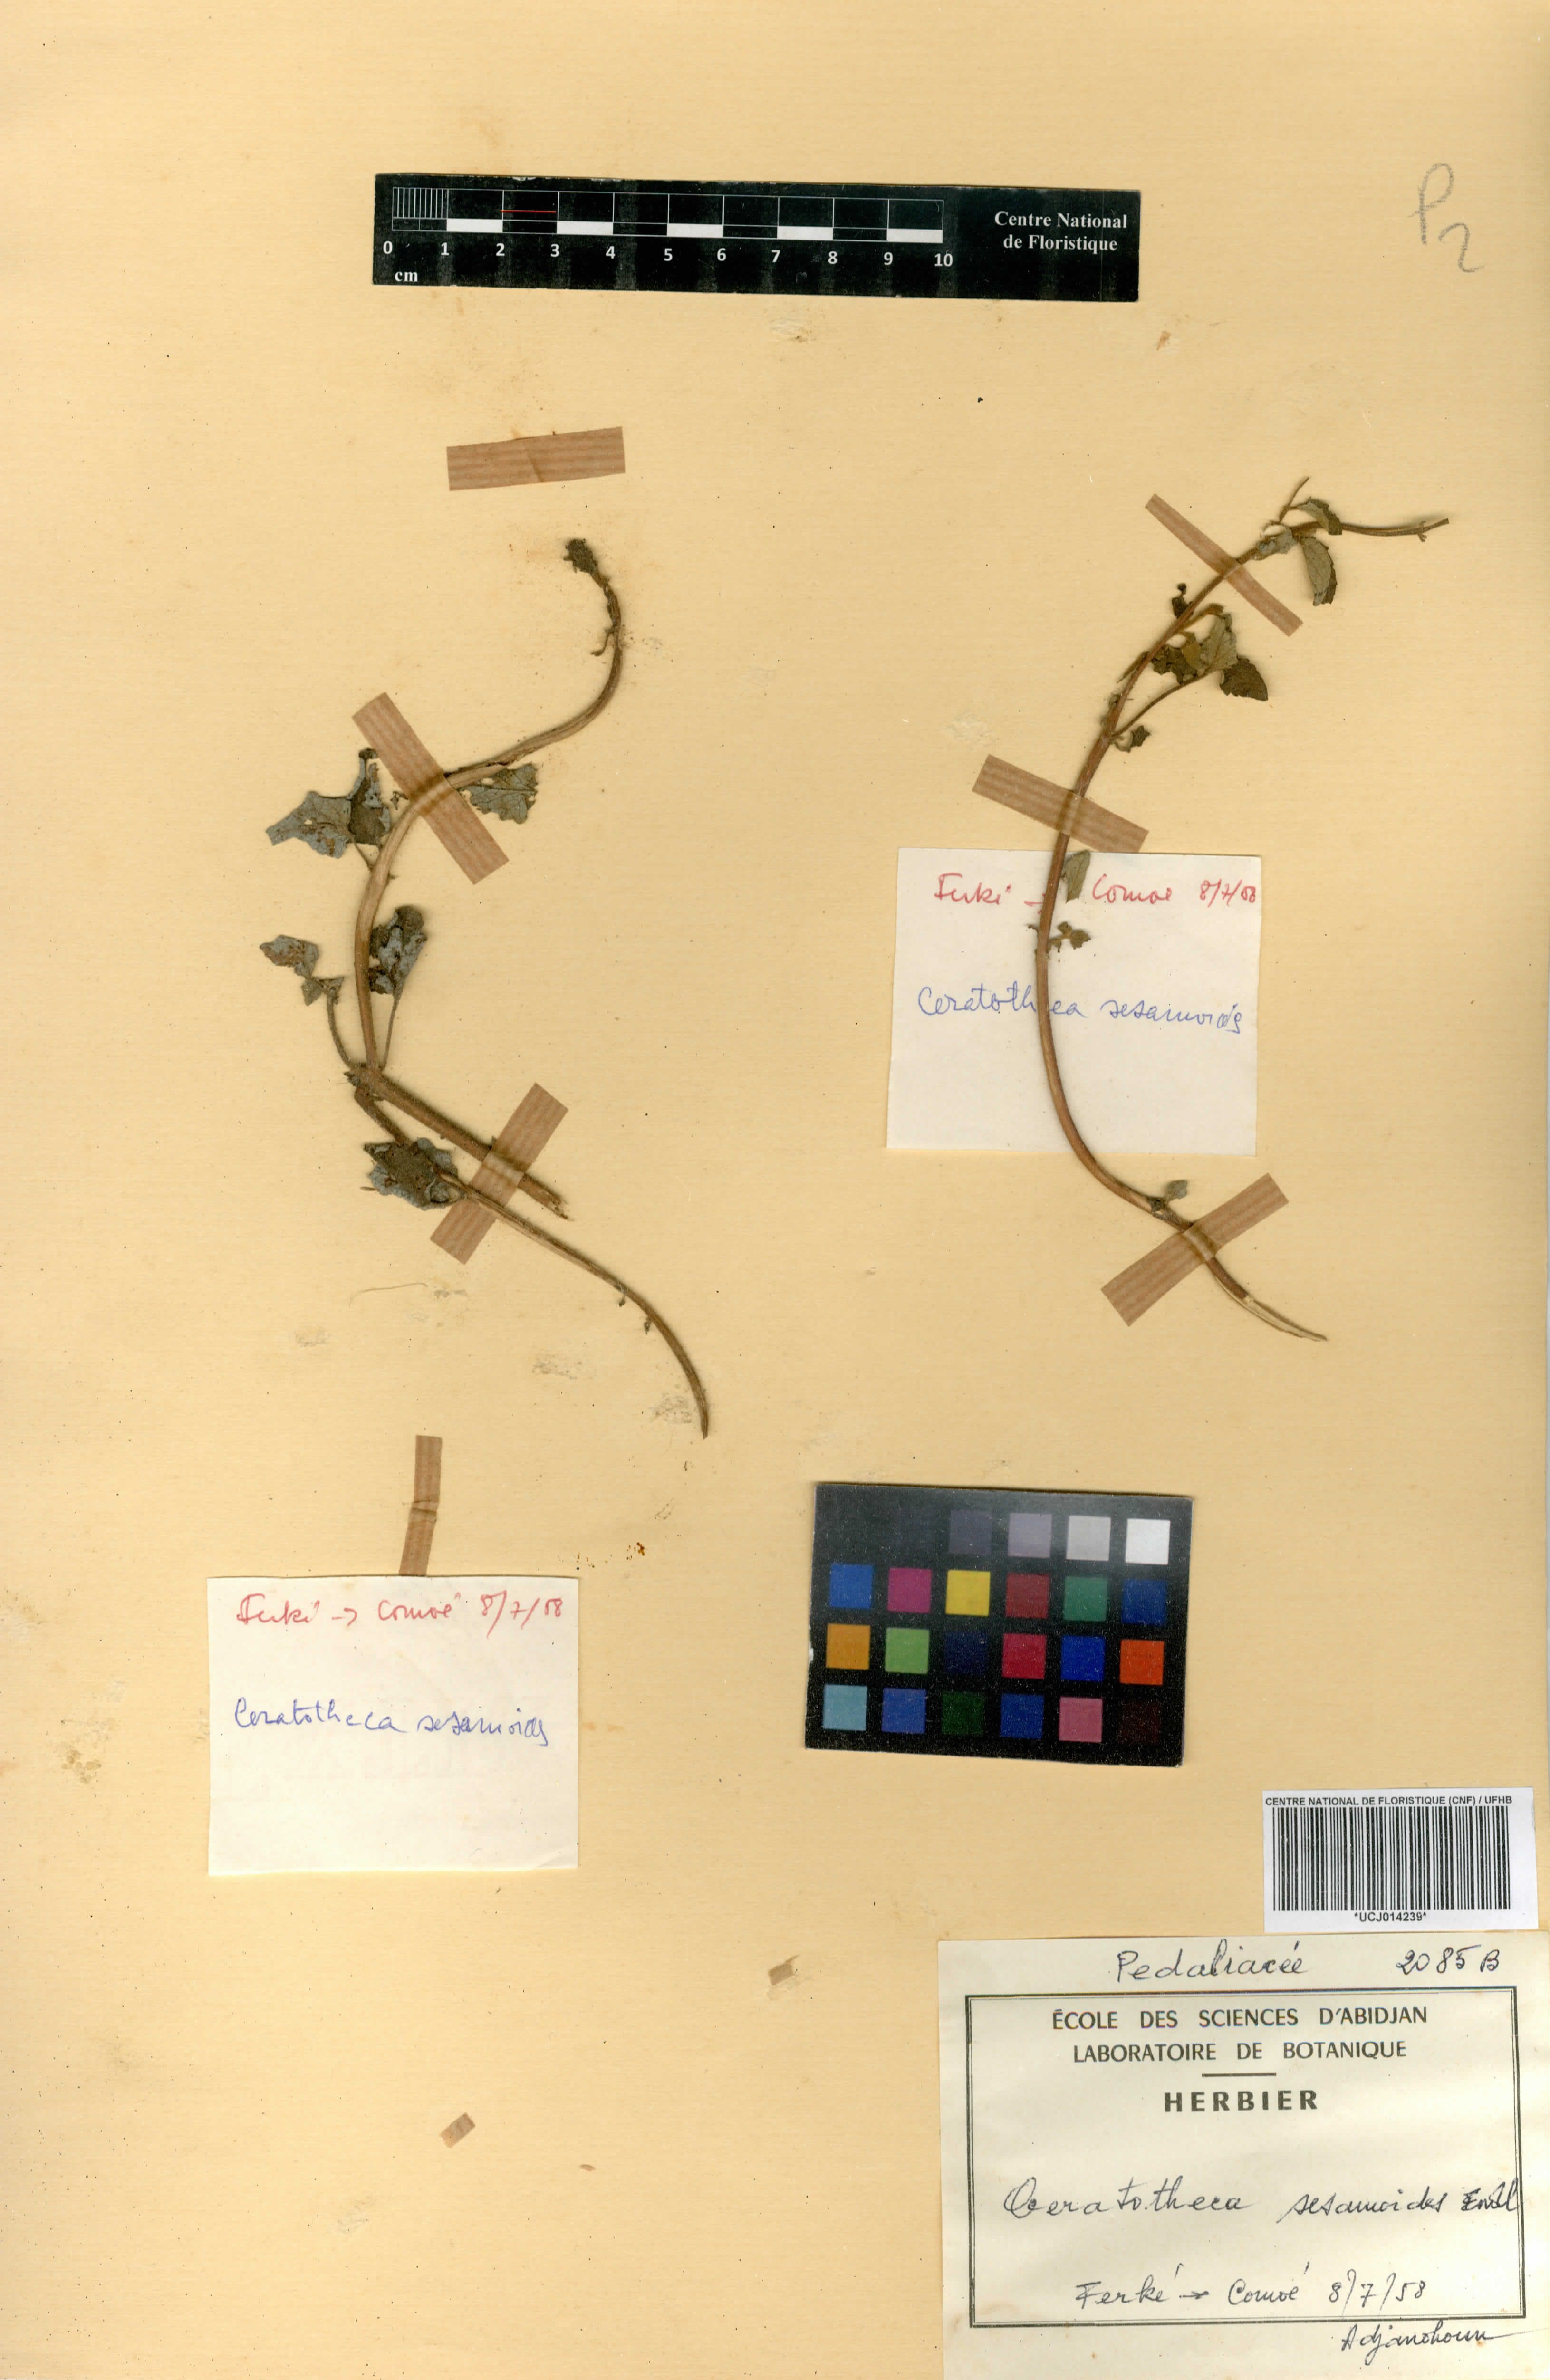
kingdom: Plantae
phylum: Tracheophyta
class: Magnoliopsida
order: Lamiales
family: Pedaliaceae
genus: Sesamum
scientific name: Sesamum sesamoides
